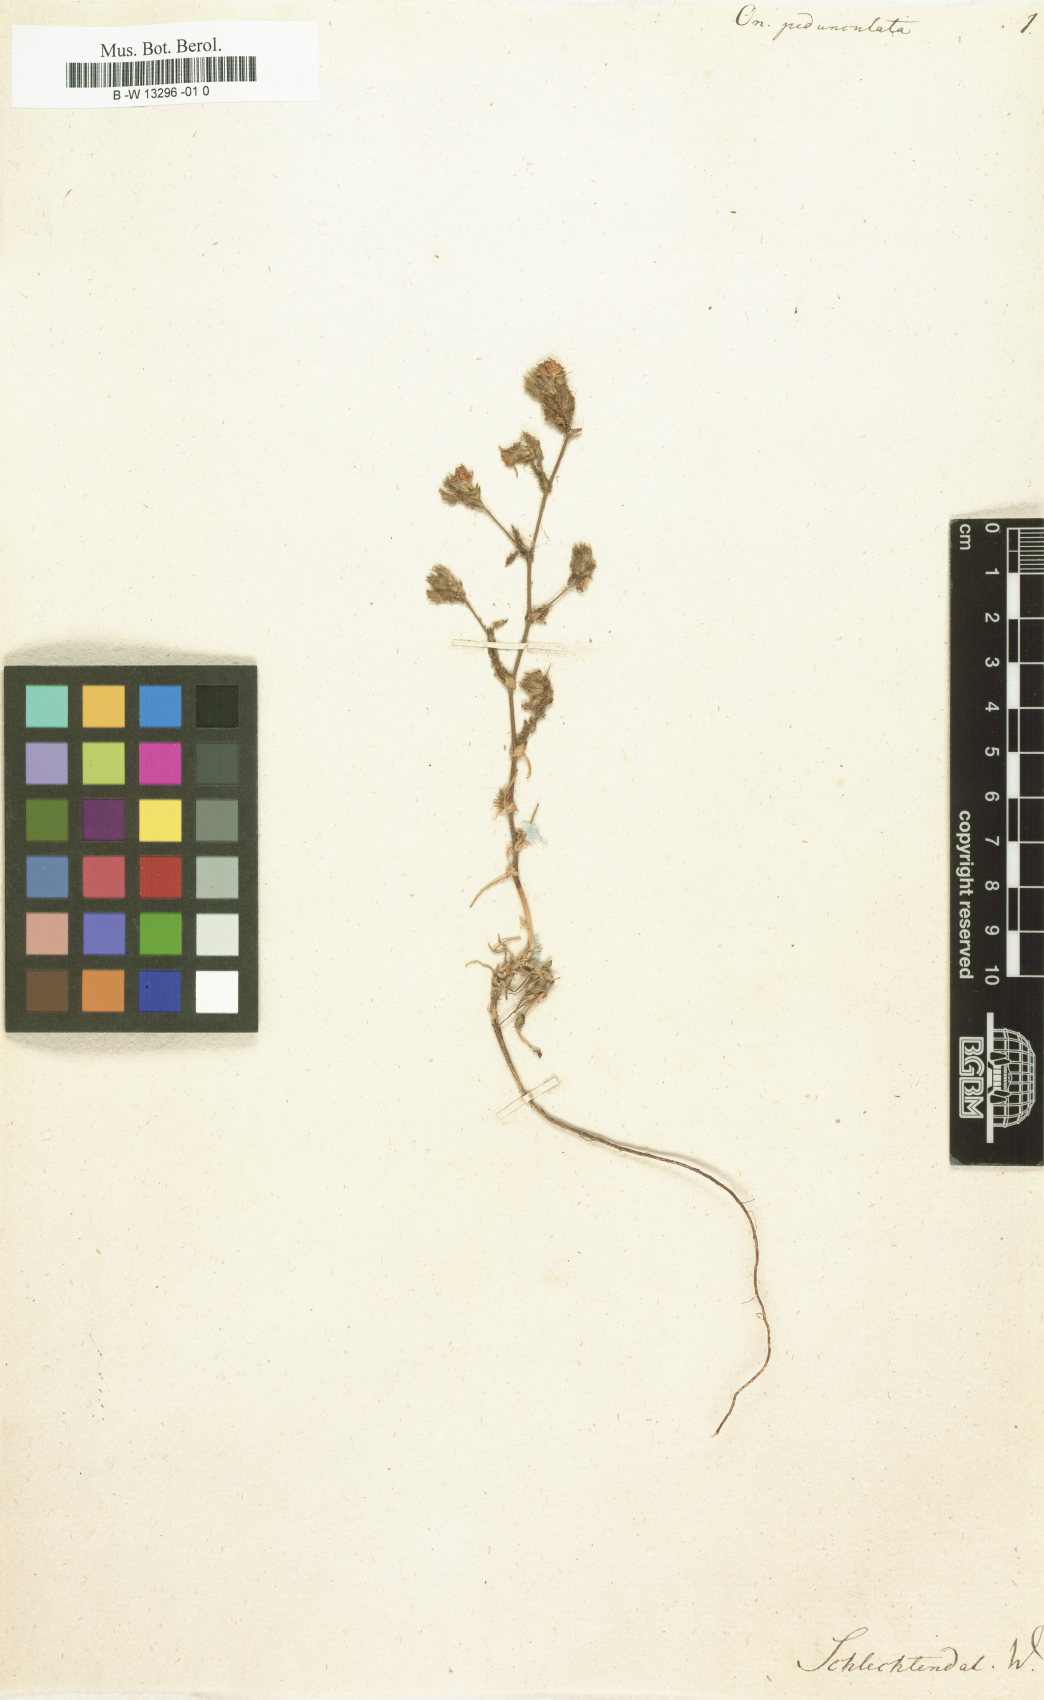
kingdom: Plantae
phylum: Tracheophyta
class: Magnoliopsida
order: Fabales
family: Fabaceae
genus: Ononis
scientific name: Ononis
